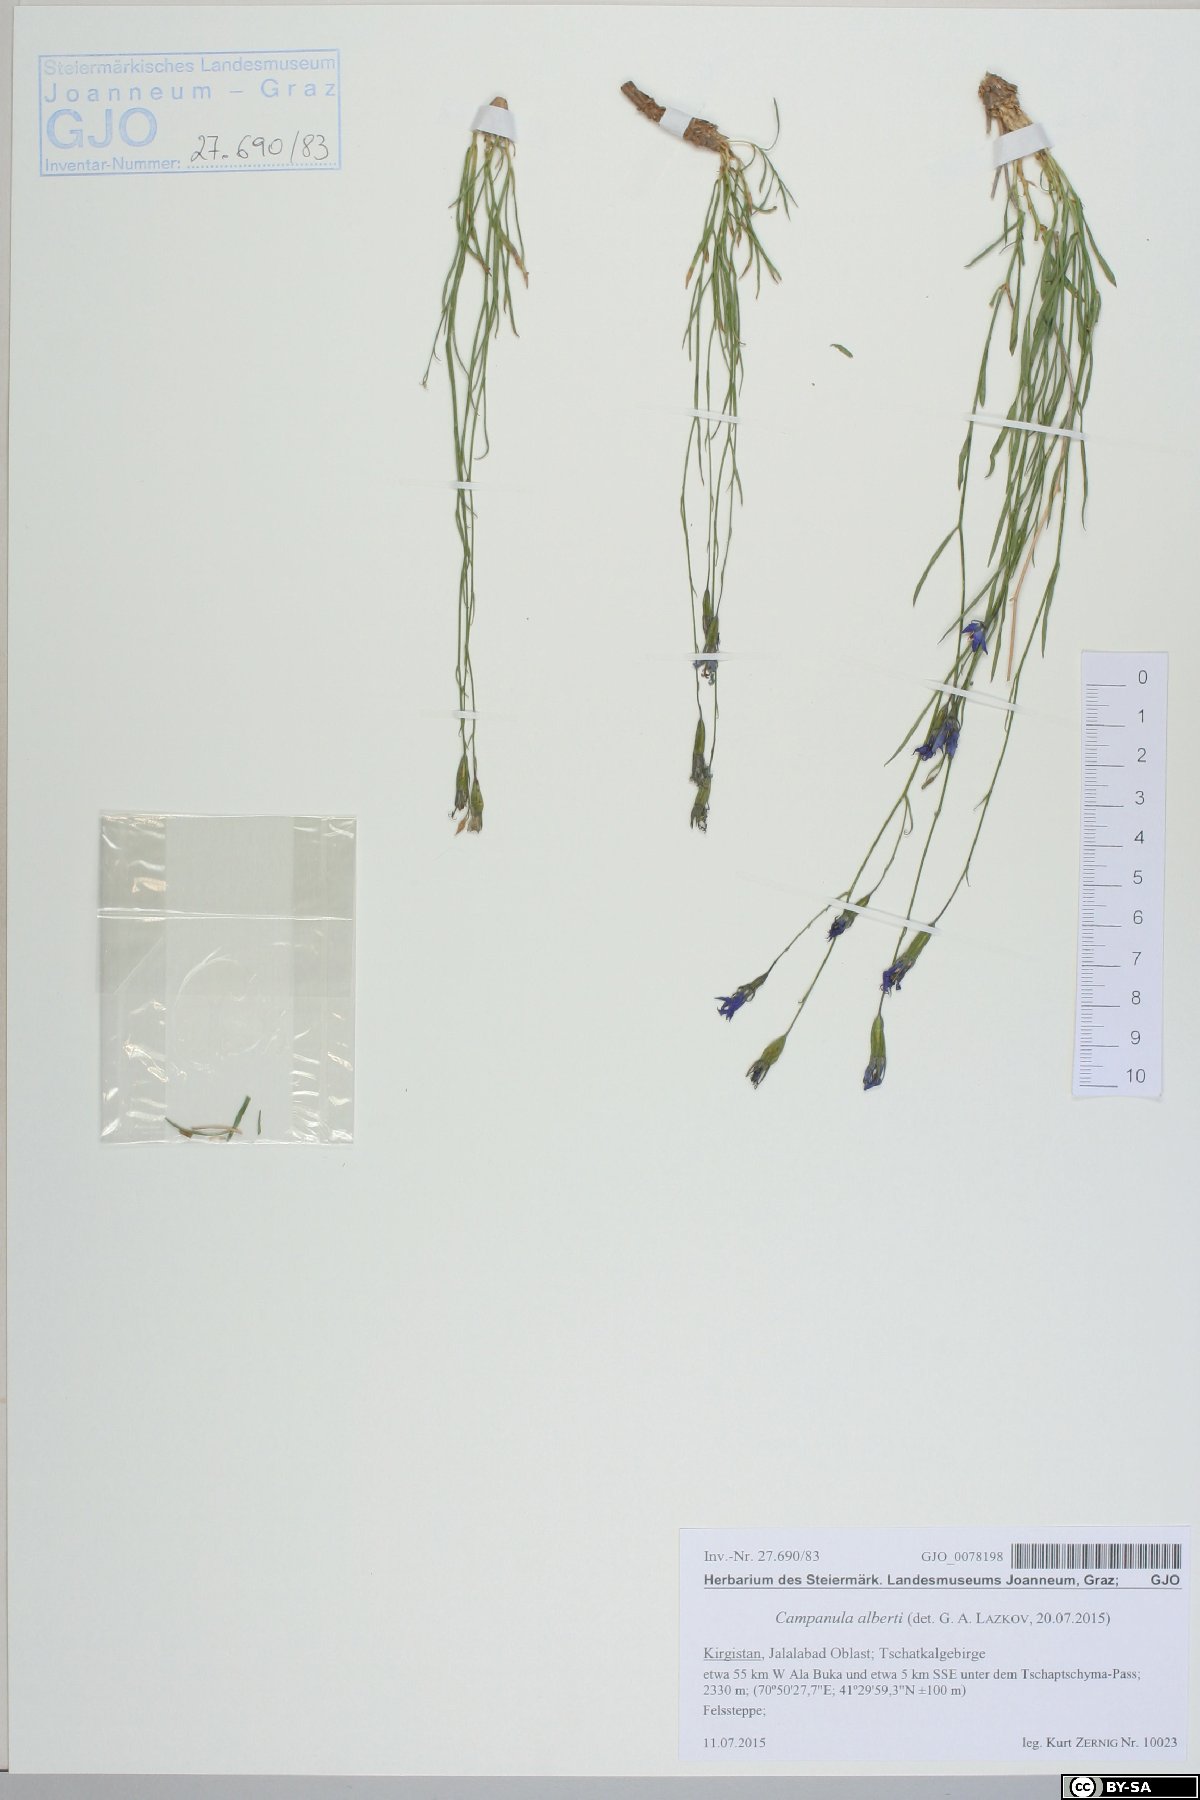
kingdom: Plantae
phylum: Tracheophyta
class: Magnoliopsida
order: Asterales
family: Campanulaceae
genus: Campanula
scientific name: Campanula stevenii
